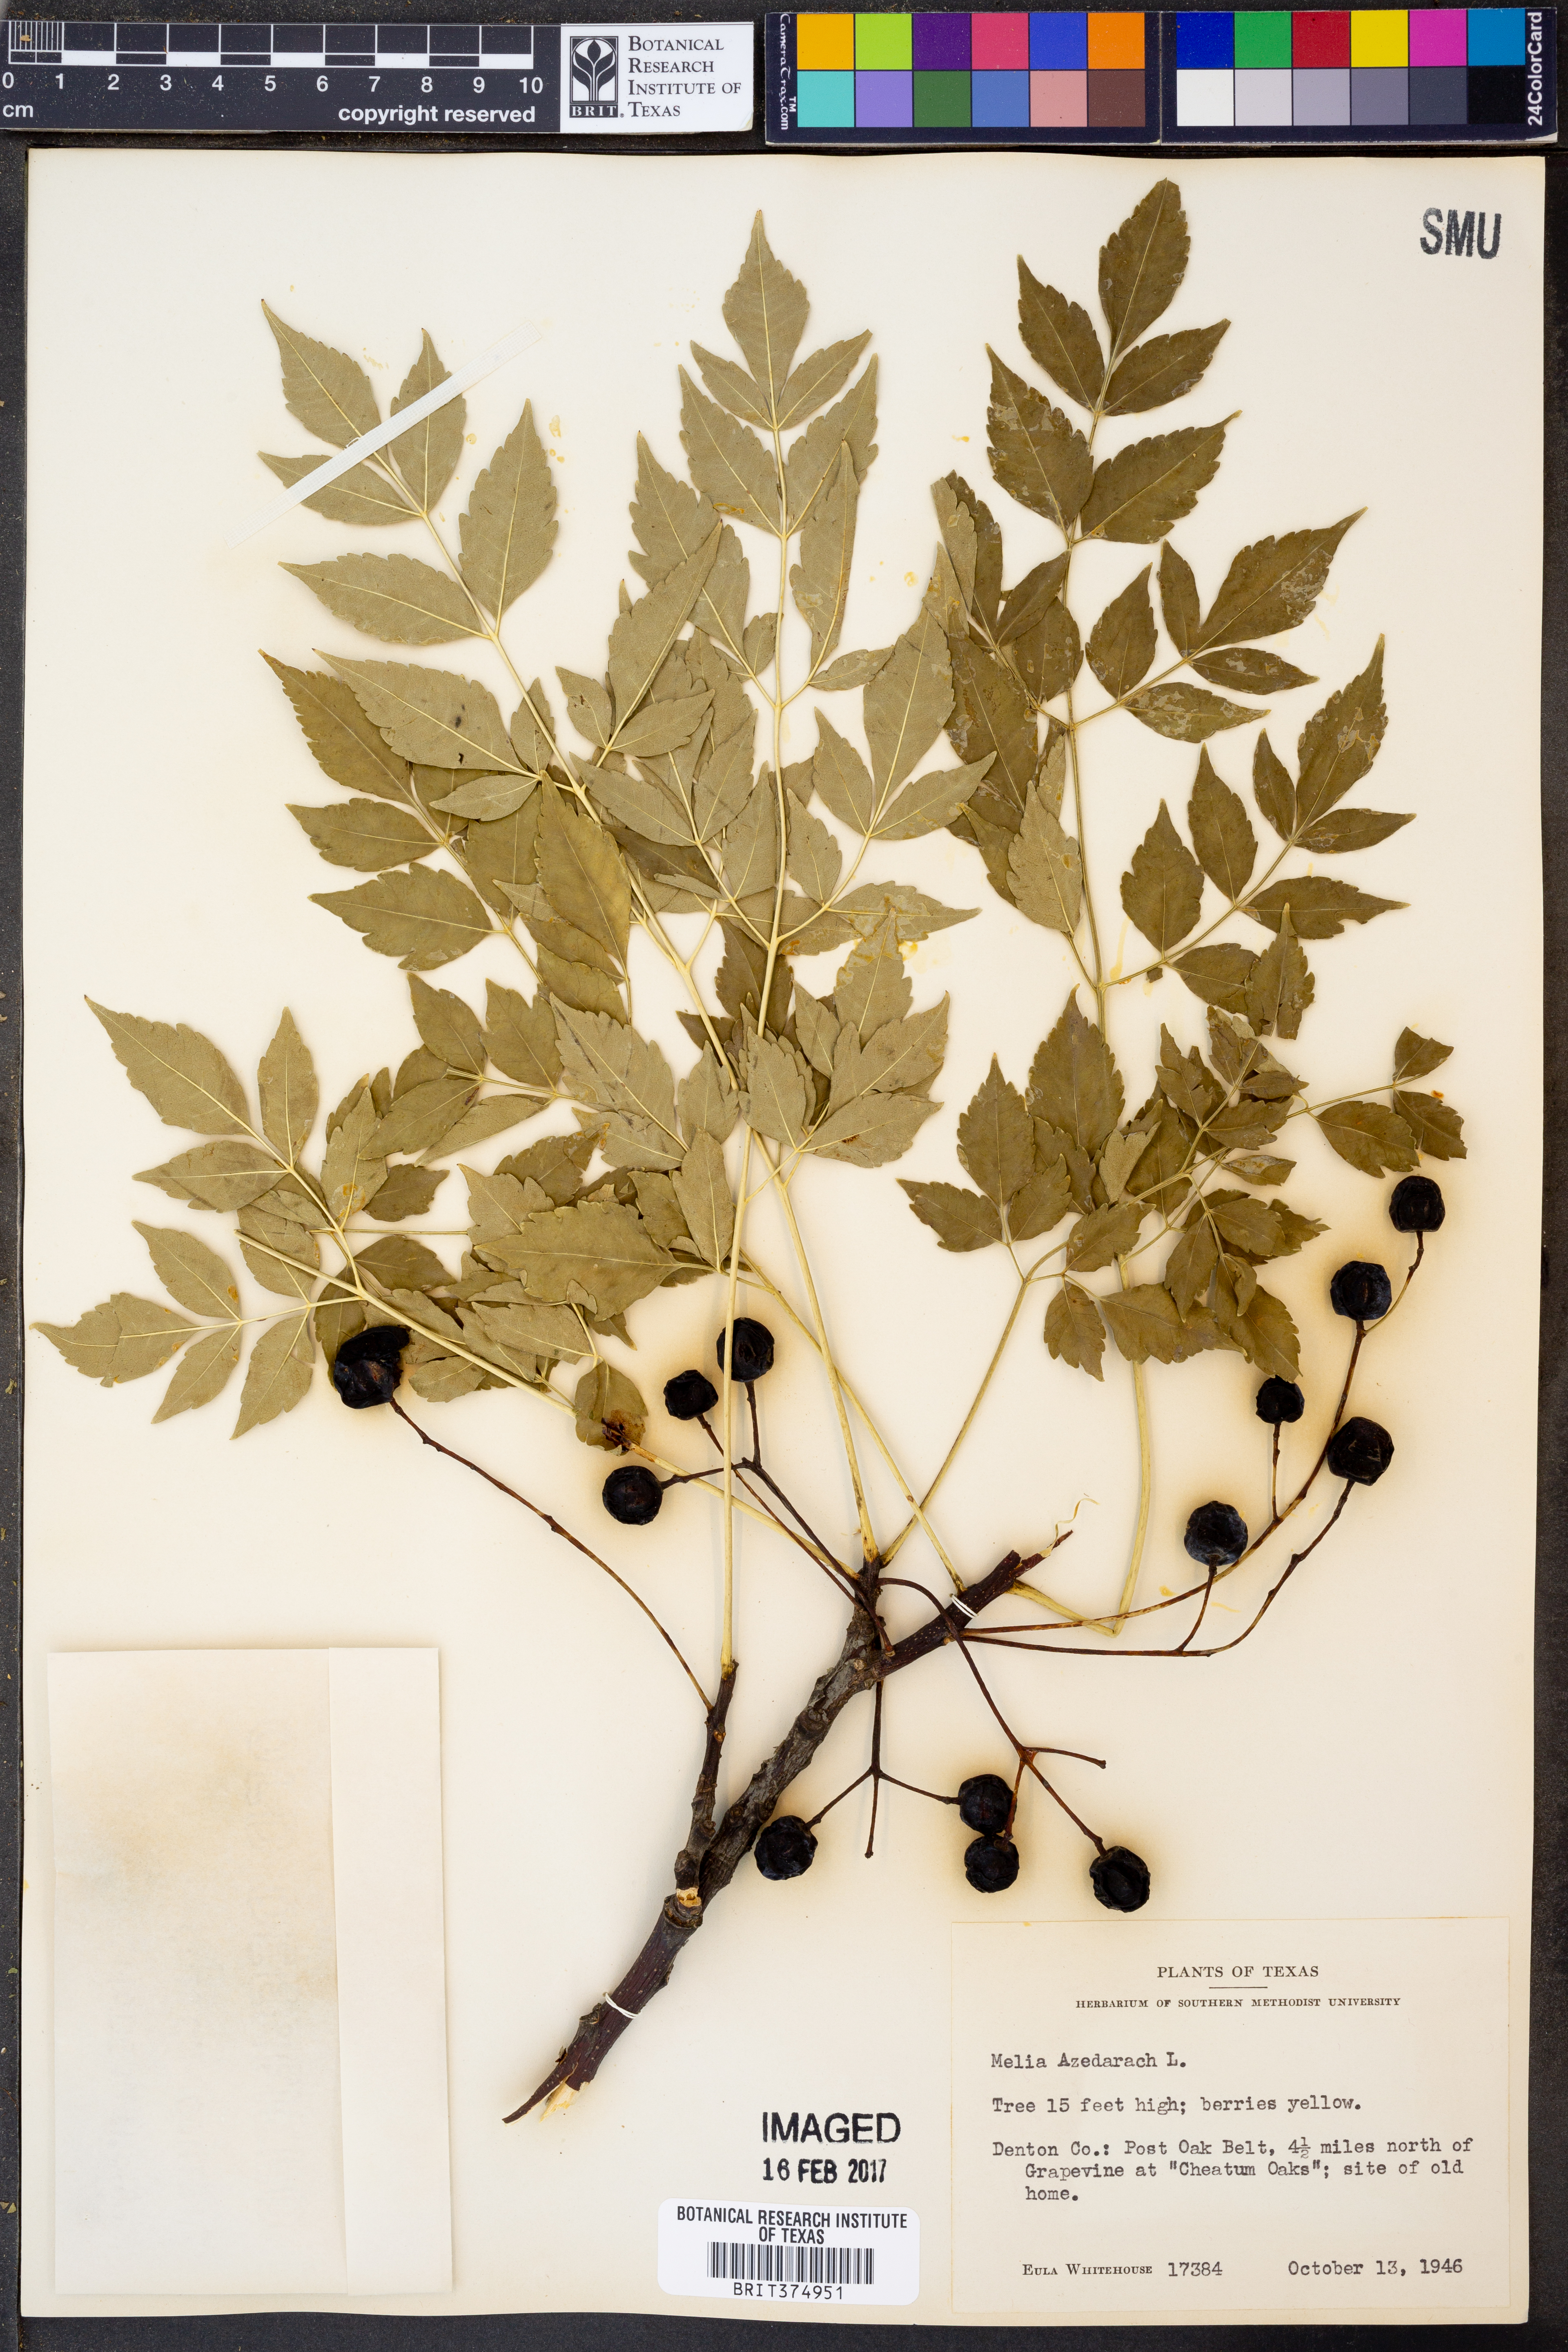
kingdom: Plantae
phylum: Tracheophyta
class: Magnoliopsida
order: Sapindales
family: Meliaceae
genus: Melia
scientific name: Melia azedarach
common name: Chinaberrytree
